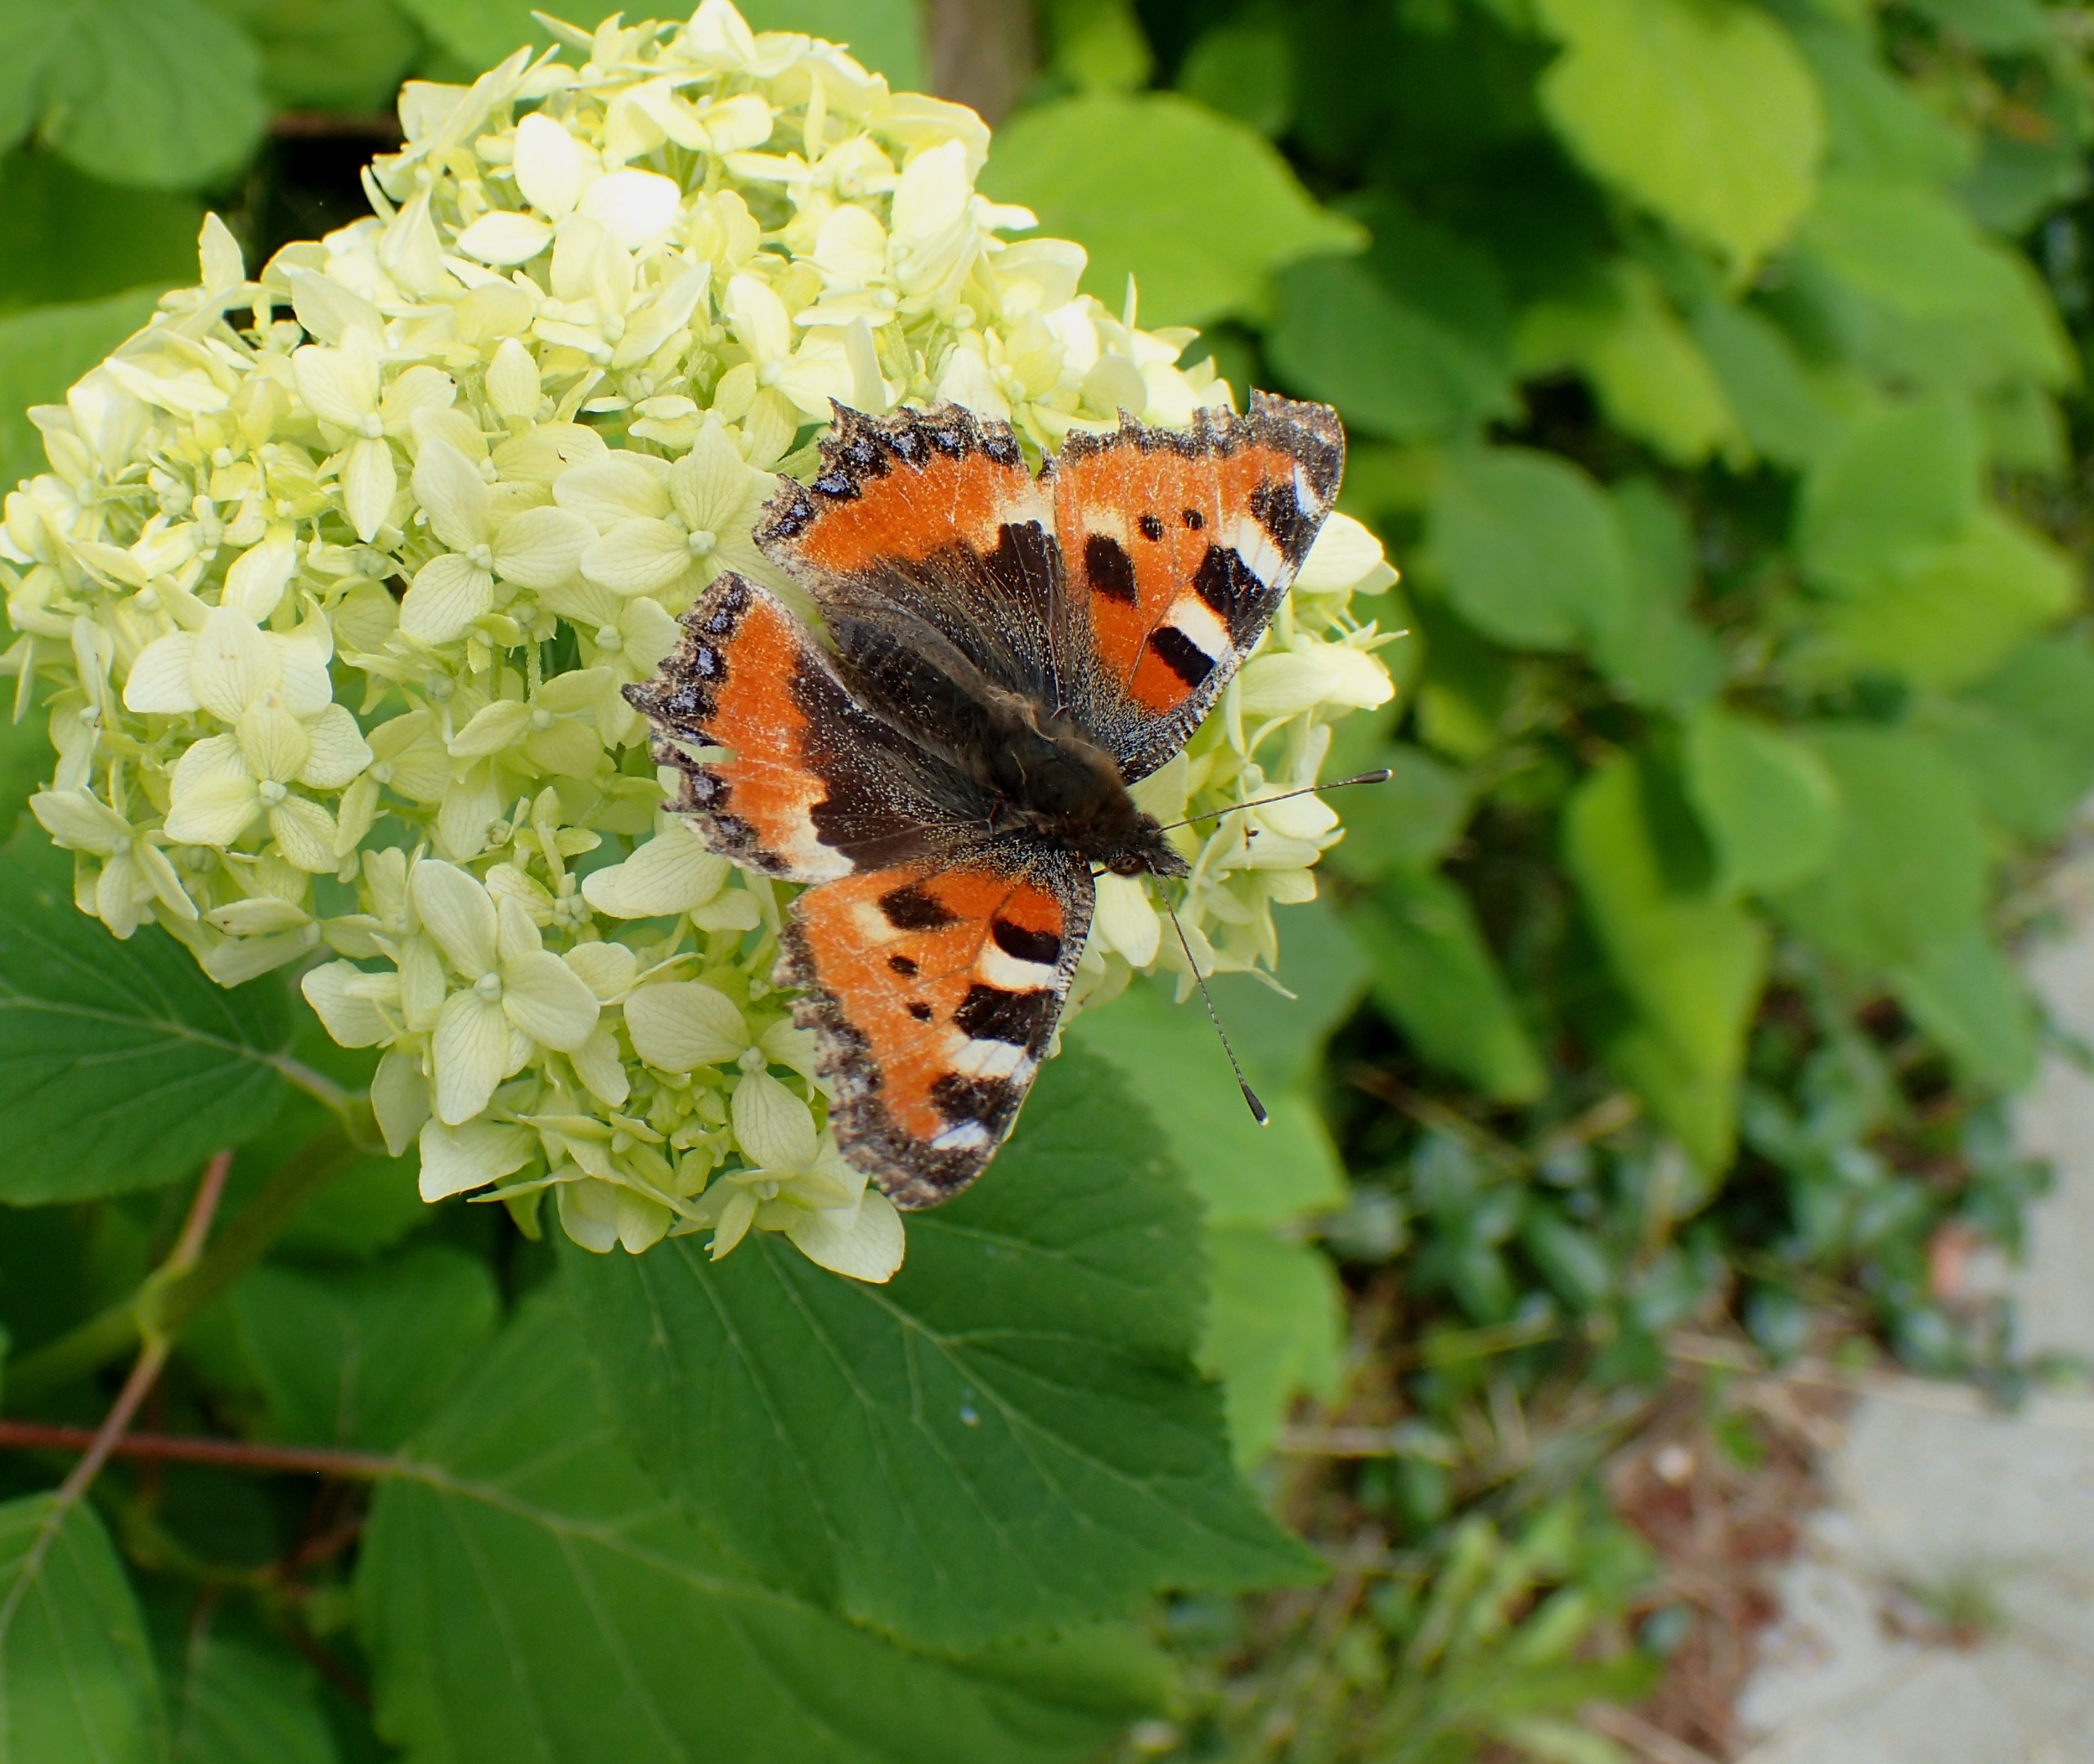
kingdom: Animalia
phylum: Arthropoda
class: Insecta
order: Lepidoptera
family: Nymphalidae
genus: Aglais
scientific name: Aglais urticae
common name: Nældens takvinge
